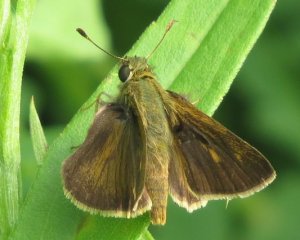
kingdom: Animalia
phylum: Arthropoda
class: Insecta
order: Lepidoptera
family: Hesperiidae
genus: Polites
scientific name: Polites egeremet
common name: Northern Broken-Dash
